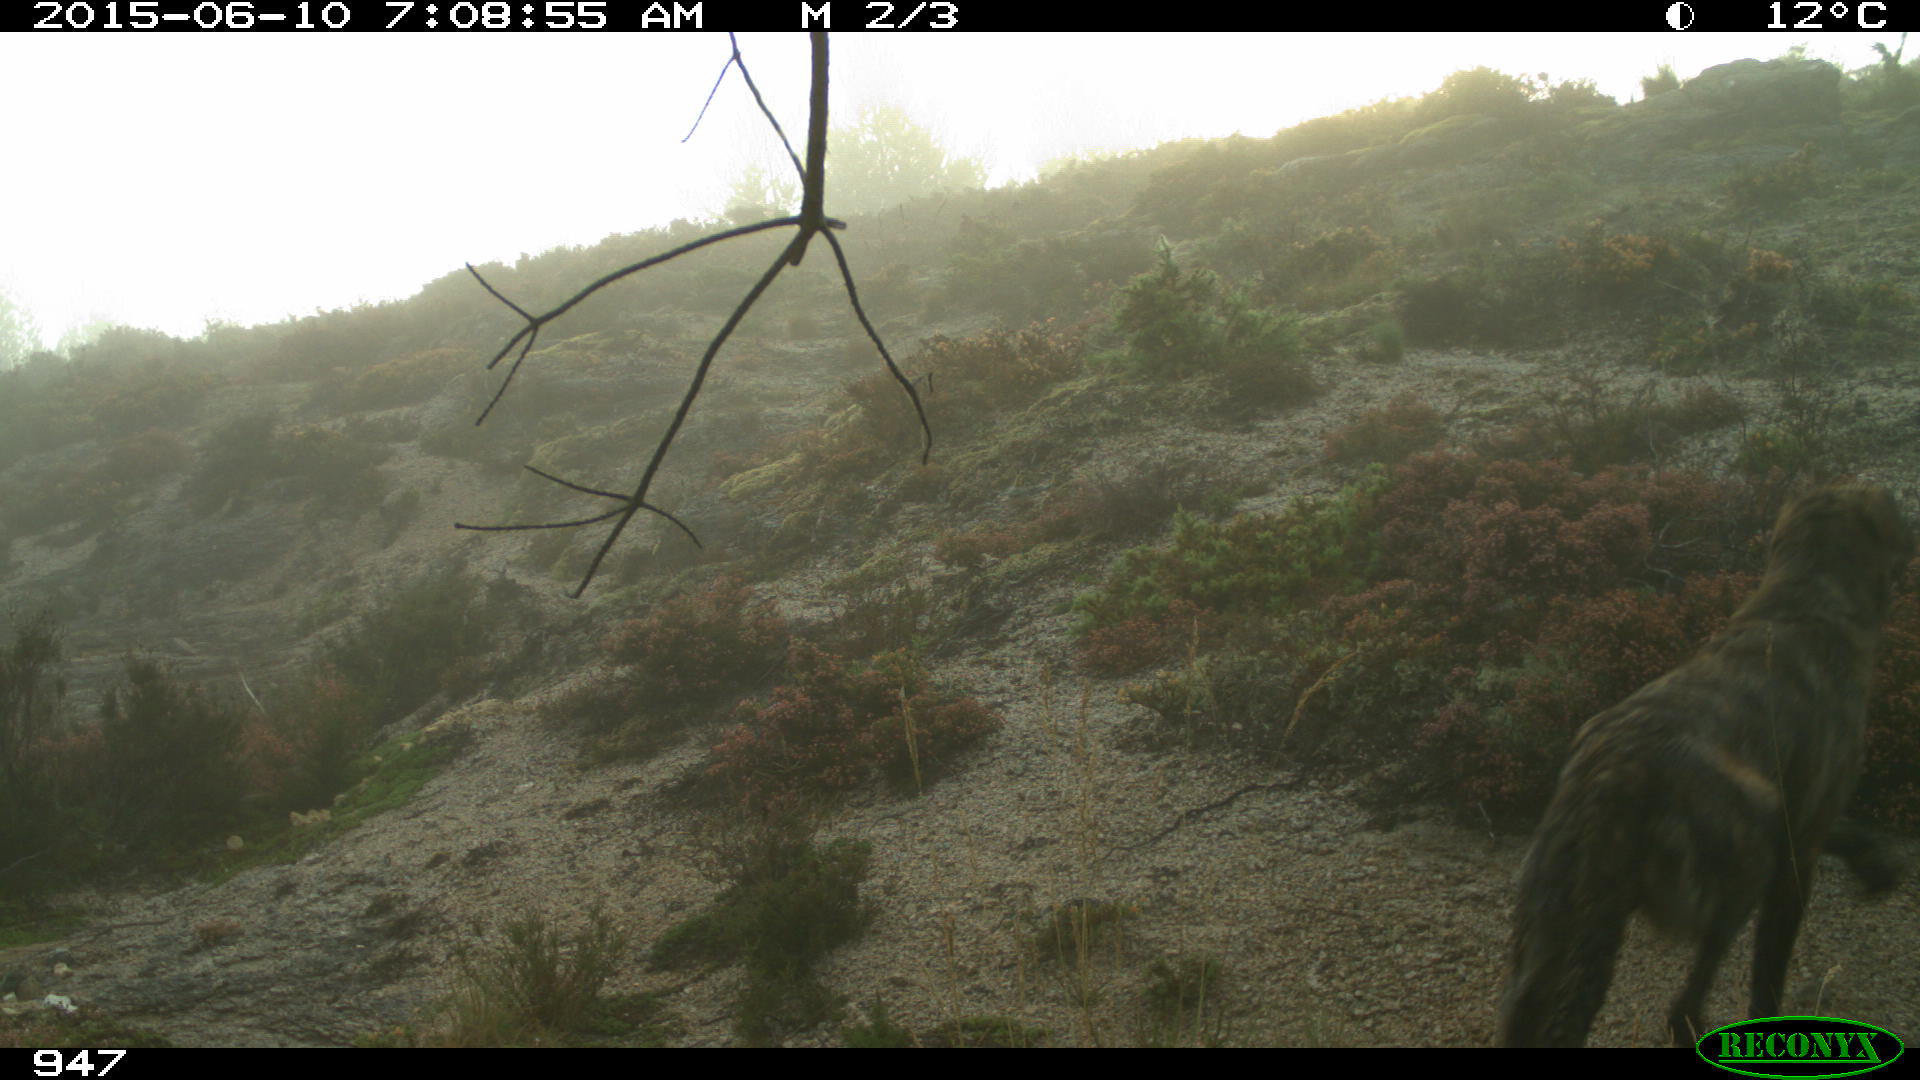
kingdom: Animalia
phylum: Chordata
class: Mammalia
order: Carnivora
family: Canidae
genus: Canis
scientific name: Canis lupus
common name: Gray wolf
